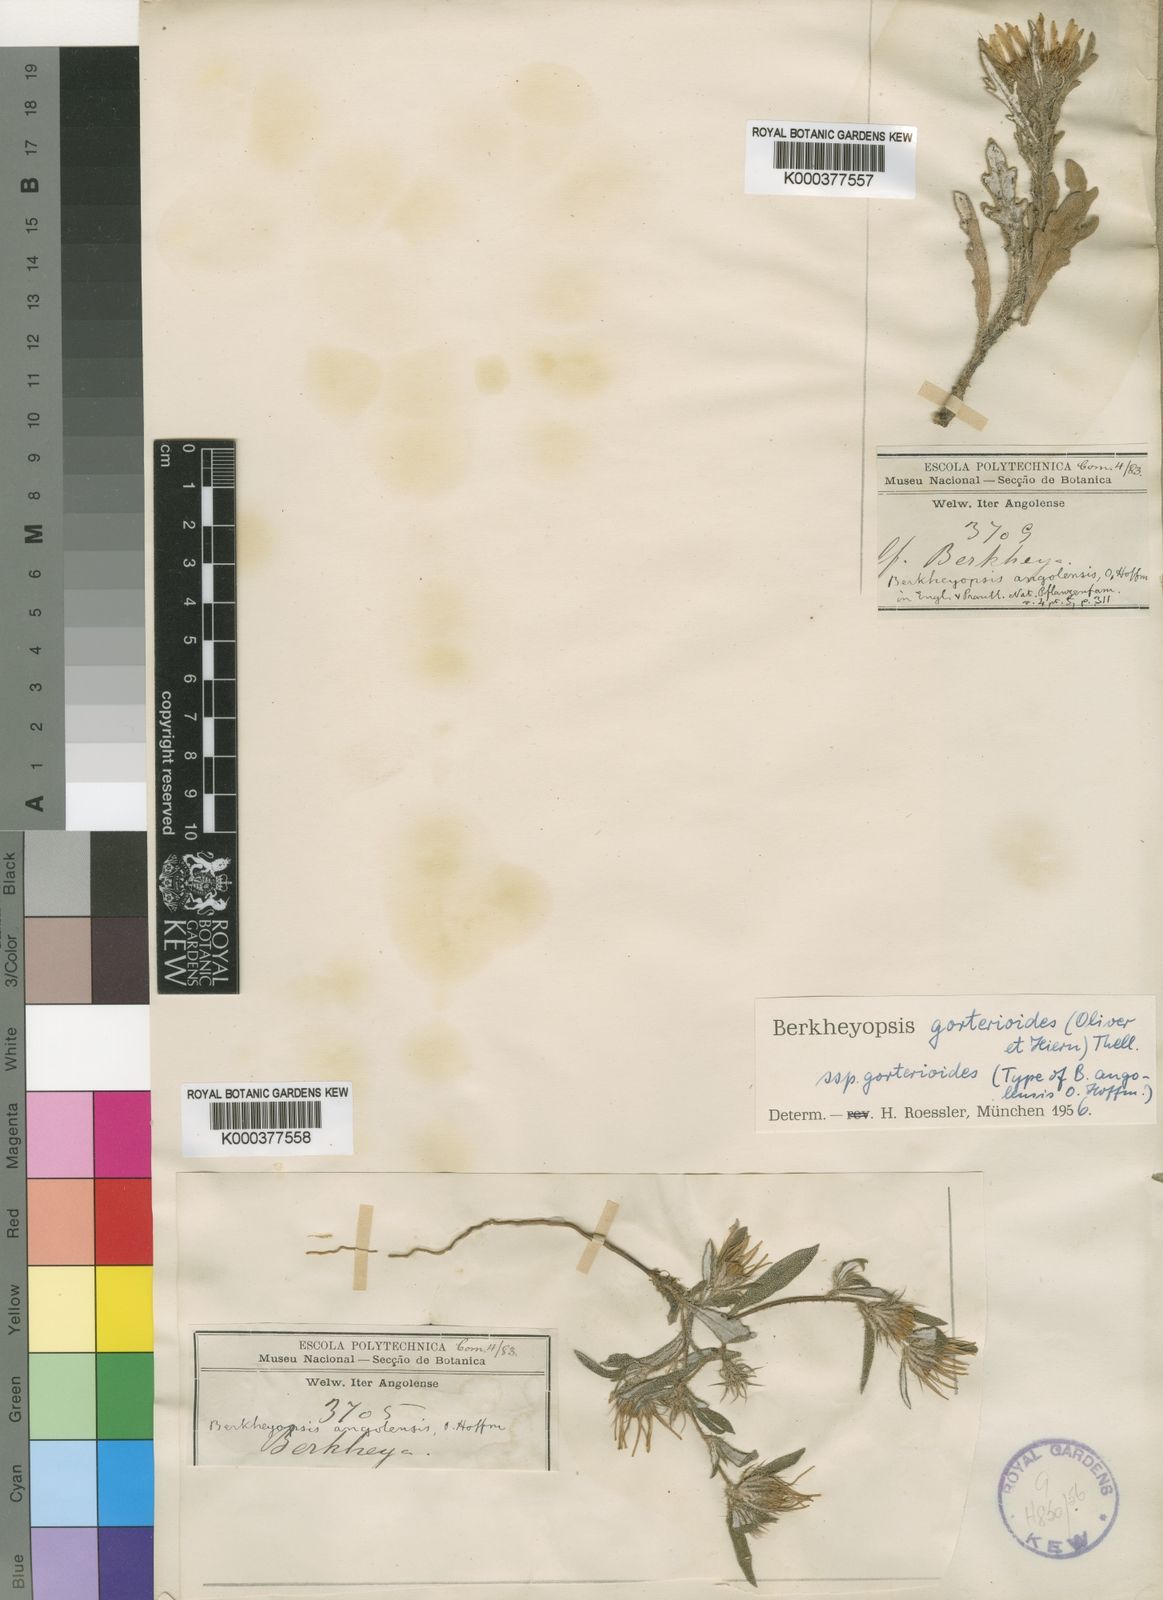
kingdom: Plantae
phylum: Tracheophyta
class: Magnoliopsida
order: Asterales
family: Asteraceae
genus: Roessleria
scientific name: Roessleria gorterioides
